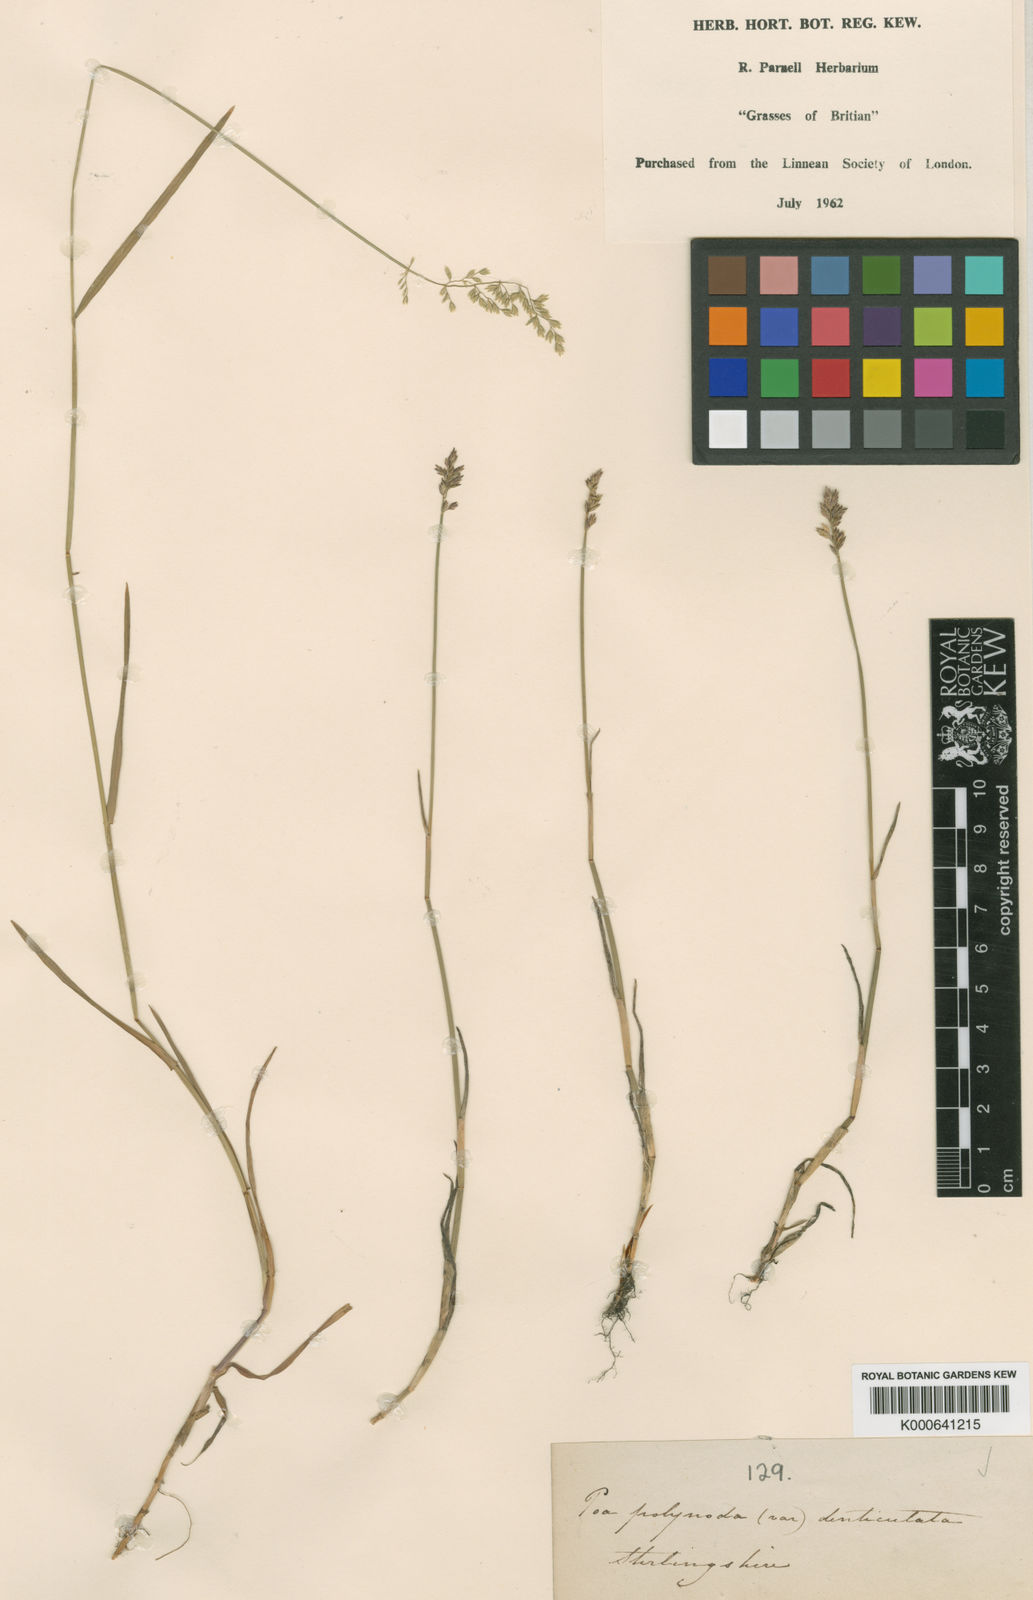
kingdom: Plantae
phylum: Tracheophyta
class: Liliopsida
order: Poales
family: Poaceae
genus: Poa
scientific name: Poa compressa
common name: Canada bluegrass
